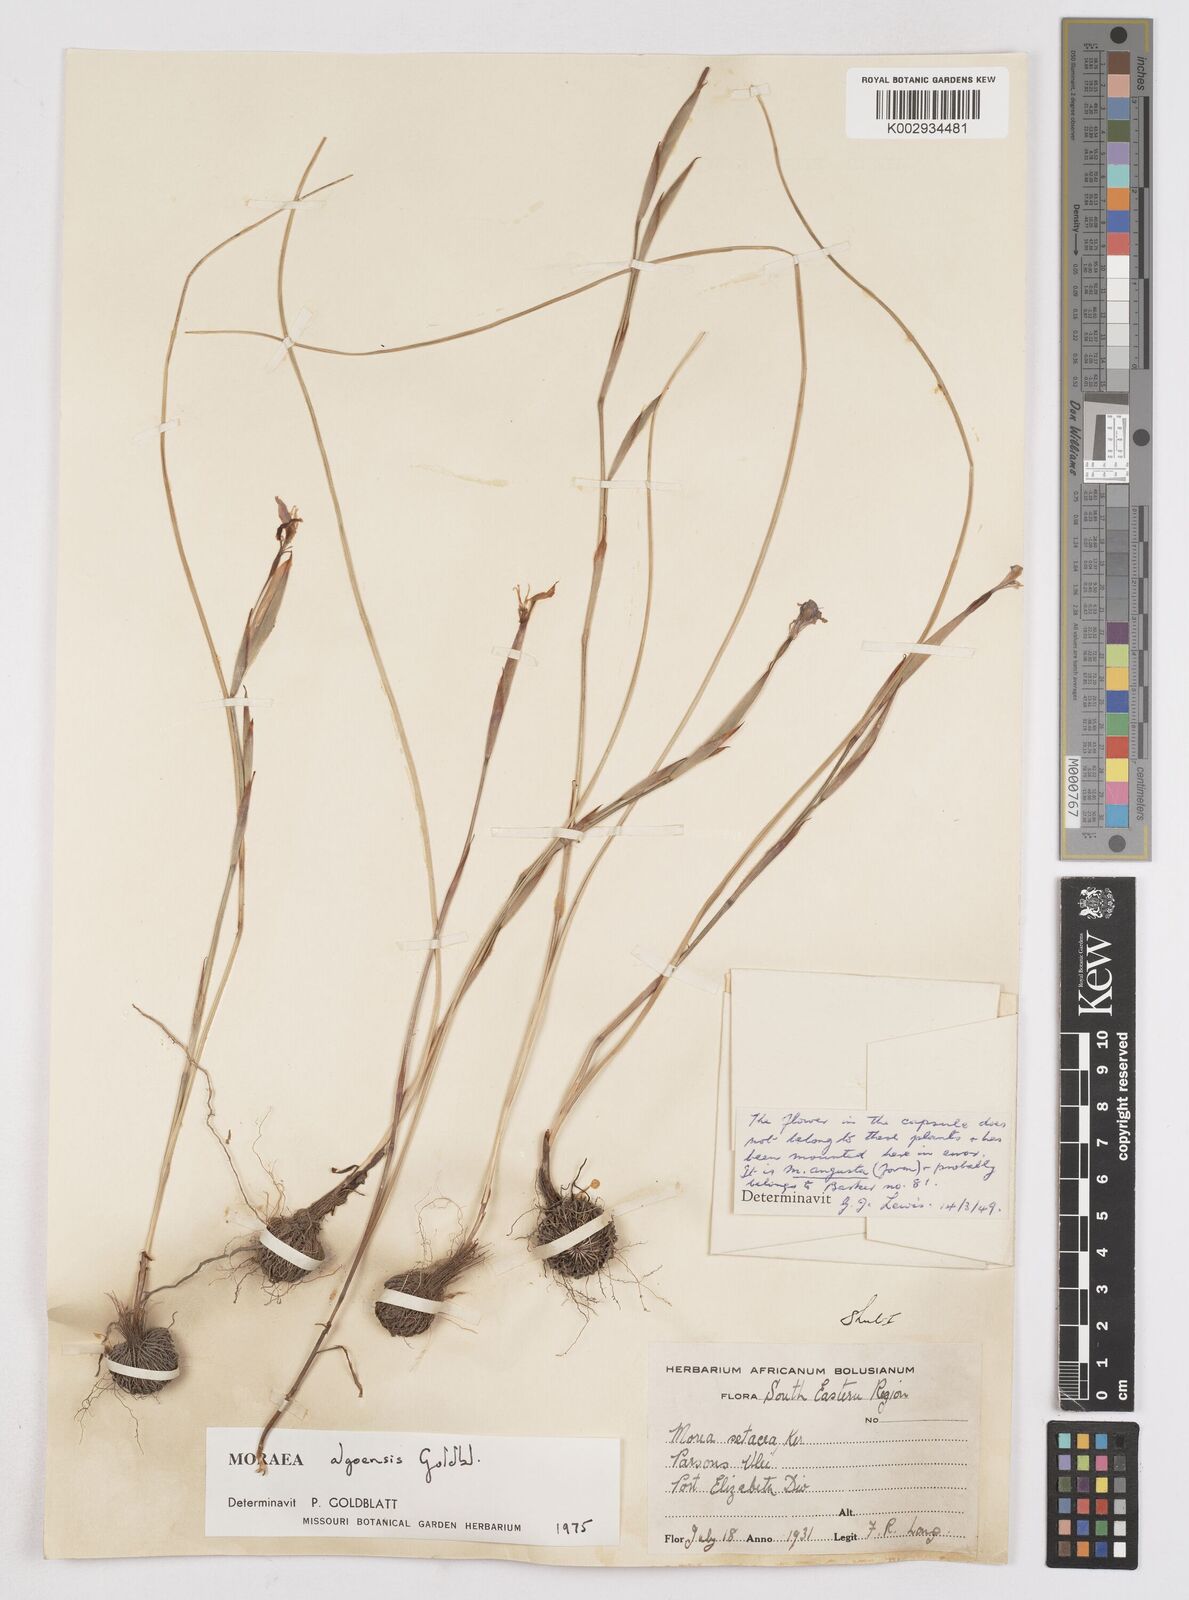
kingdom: Plantae
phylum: Tracheophyta
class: Liliopsida
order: Asparagales
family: Iridaceae
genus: Moraea
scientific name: Moraea algoensis
